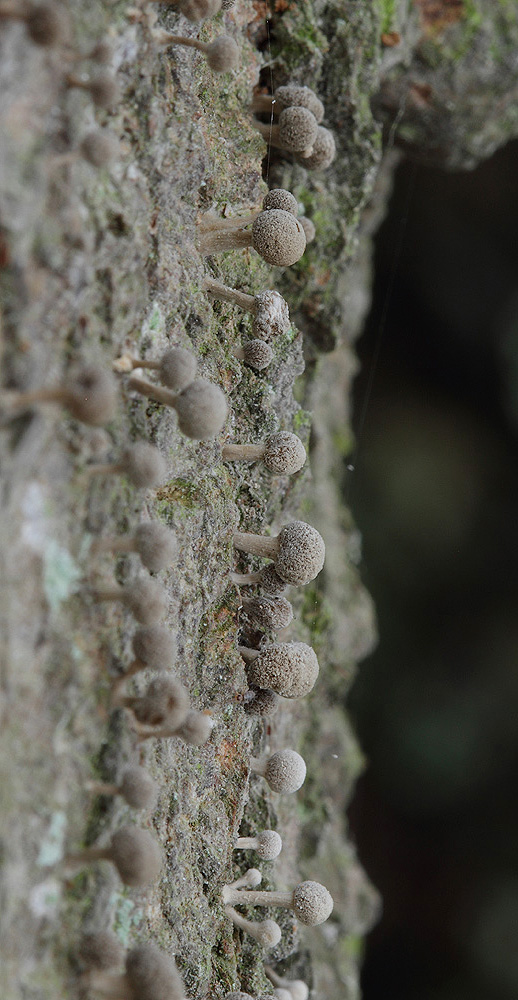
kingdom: Fungi
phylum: Basidiomycota
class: Atractiellomycetes
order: Atractiellales
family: Phleogenaceae
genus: Phleogena
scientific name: Phleogena faginea
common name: pudderkølle
